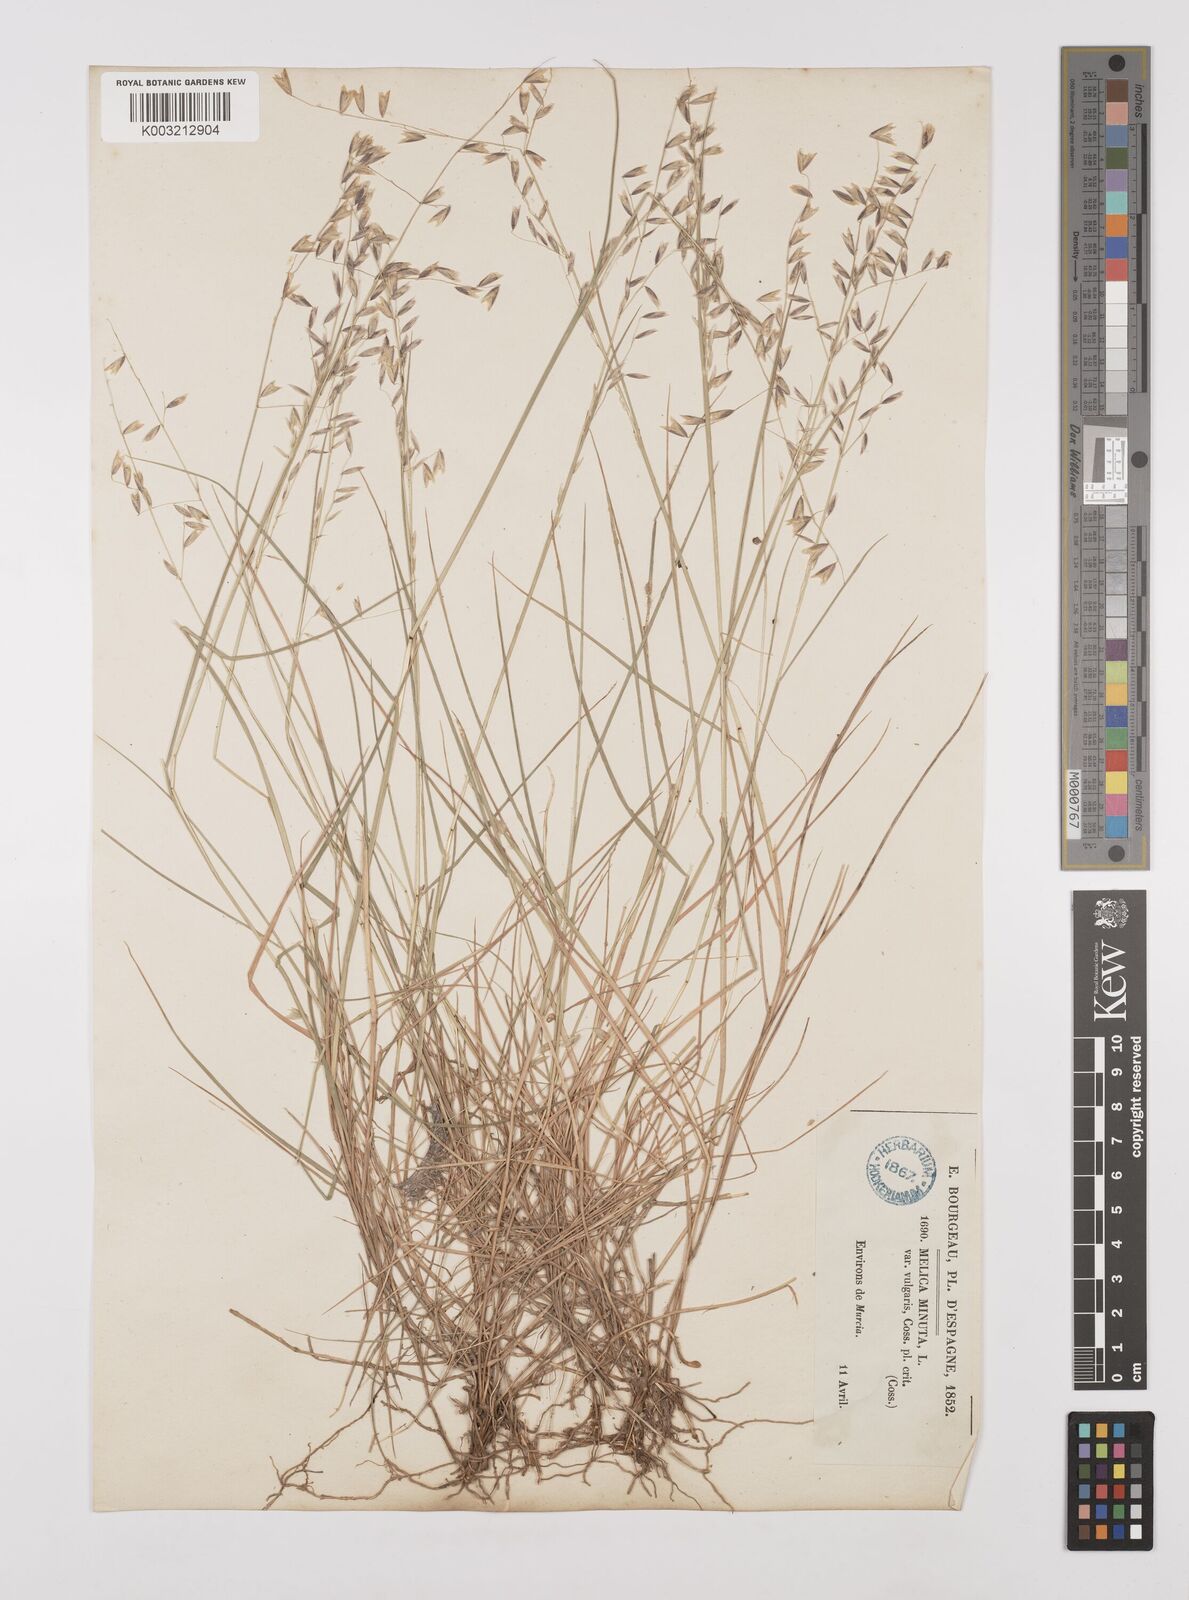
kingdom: Plantae
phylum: Tracheophyta
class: Liliopsida
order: Poales
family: Poaceae
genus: Melica
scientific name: Melica minuta
